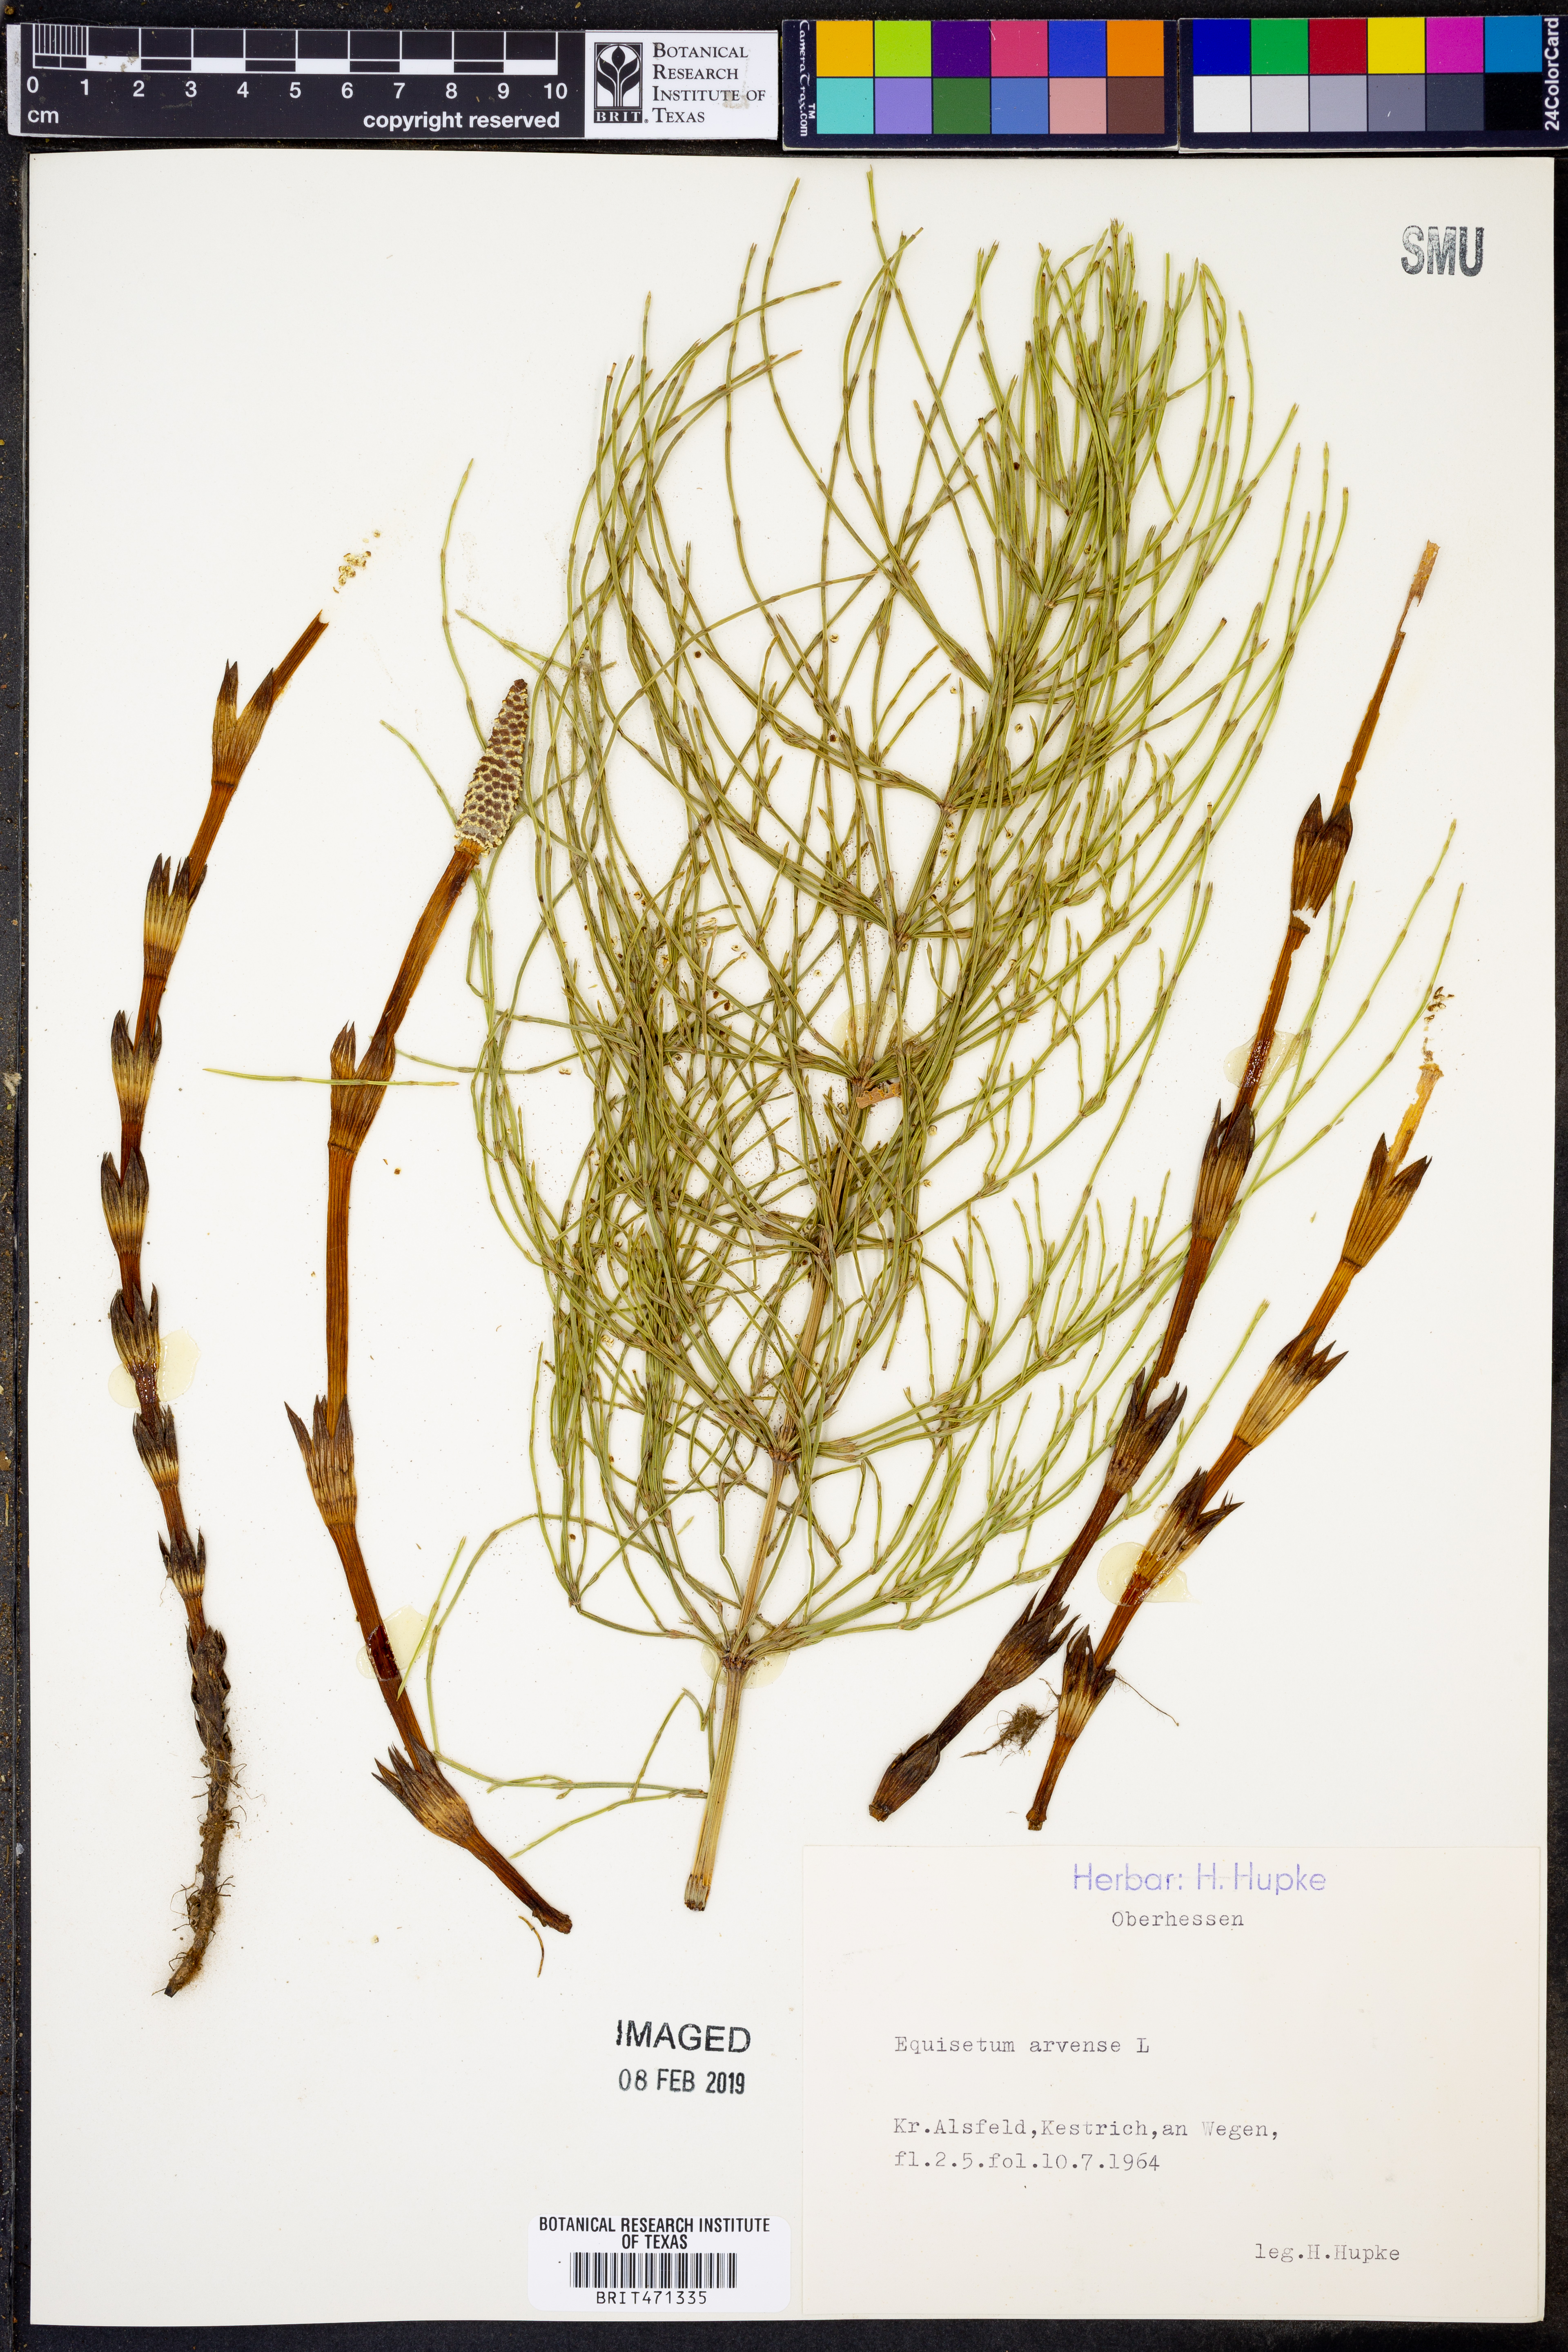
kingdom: Plantae
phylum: Tracheophyta
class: Polypodiopsida
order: Equisetales
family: Equisetaceae
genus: Equisetum
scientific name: Equisetum arvense
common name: Field horsetail
